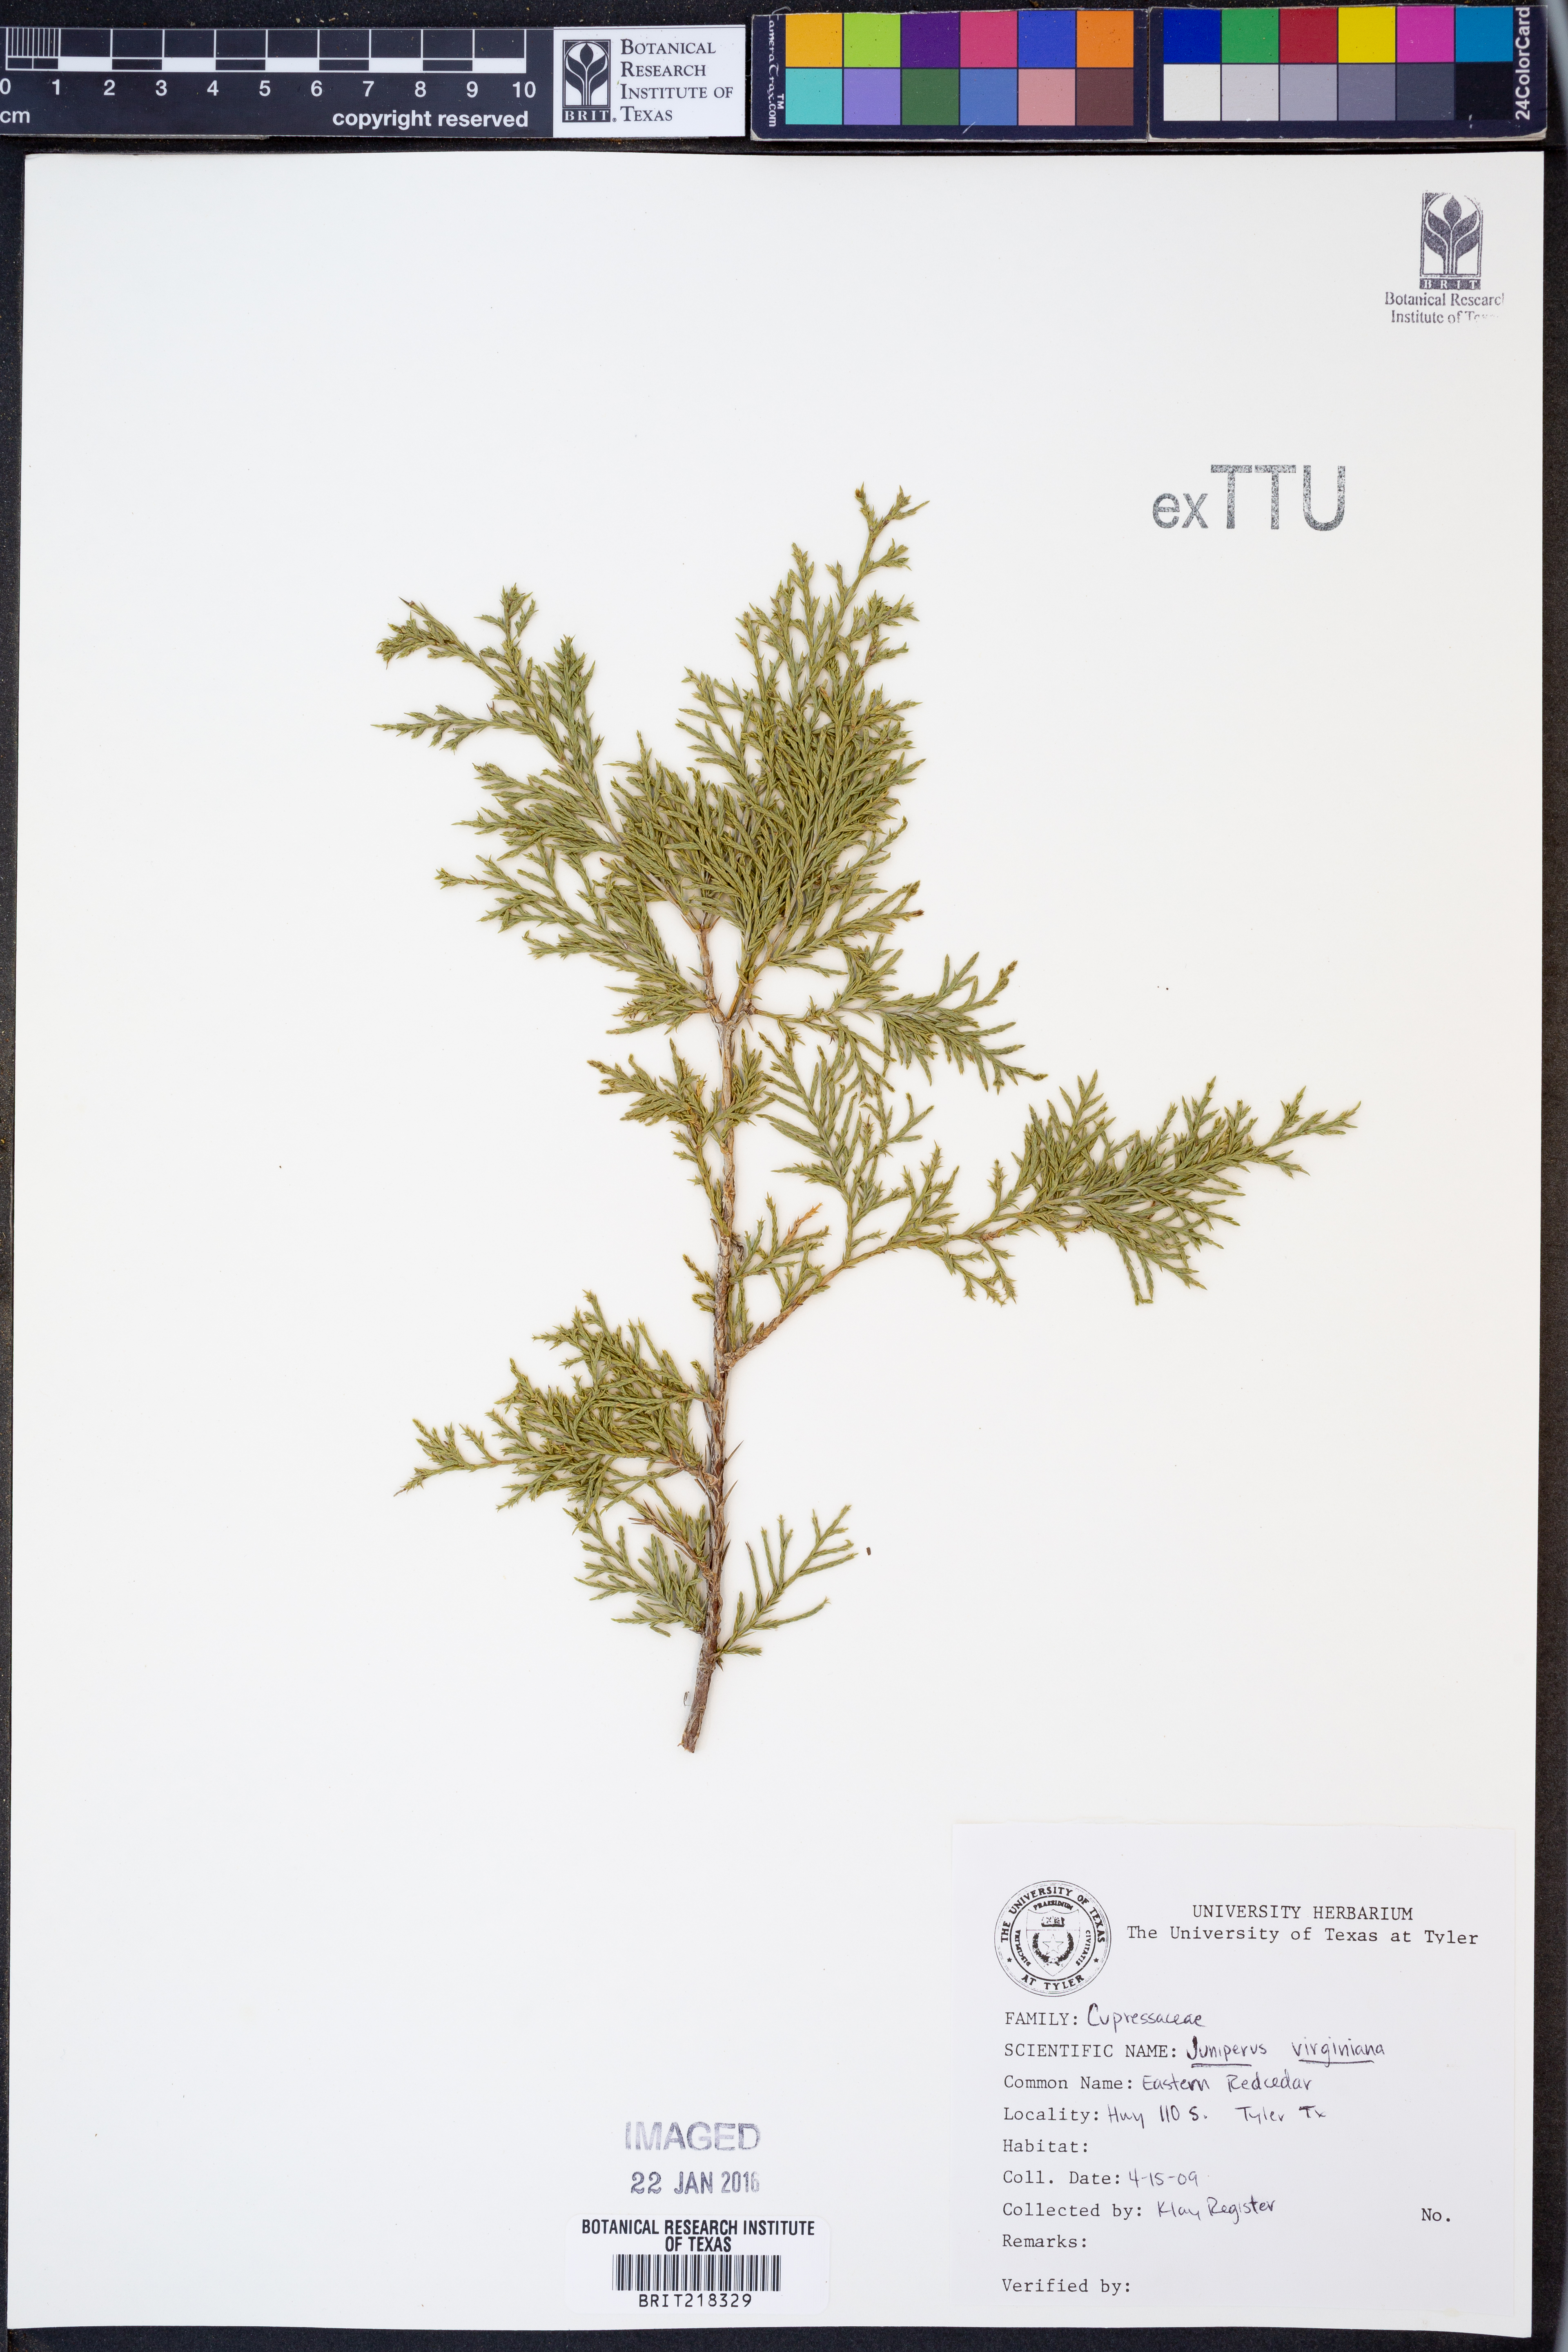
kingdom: Plantae
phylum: Tracheophyta
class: Pinopsida
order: Pinales
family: Cupressaceae
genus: Juniperus
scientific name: Juniperus virginiana
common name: Red juniper
